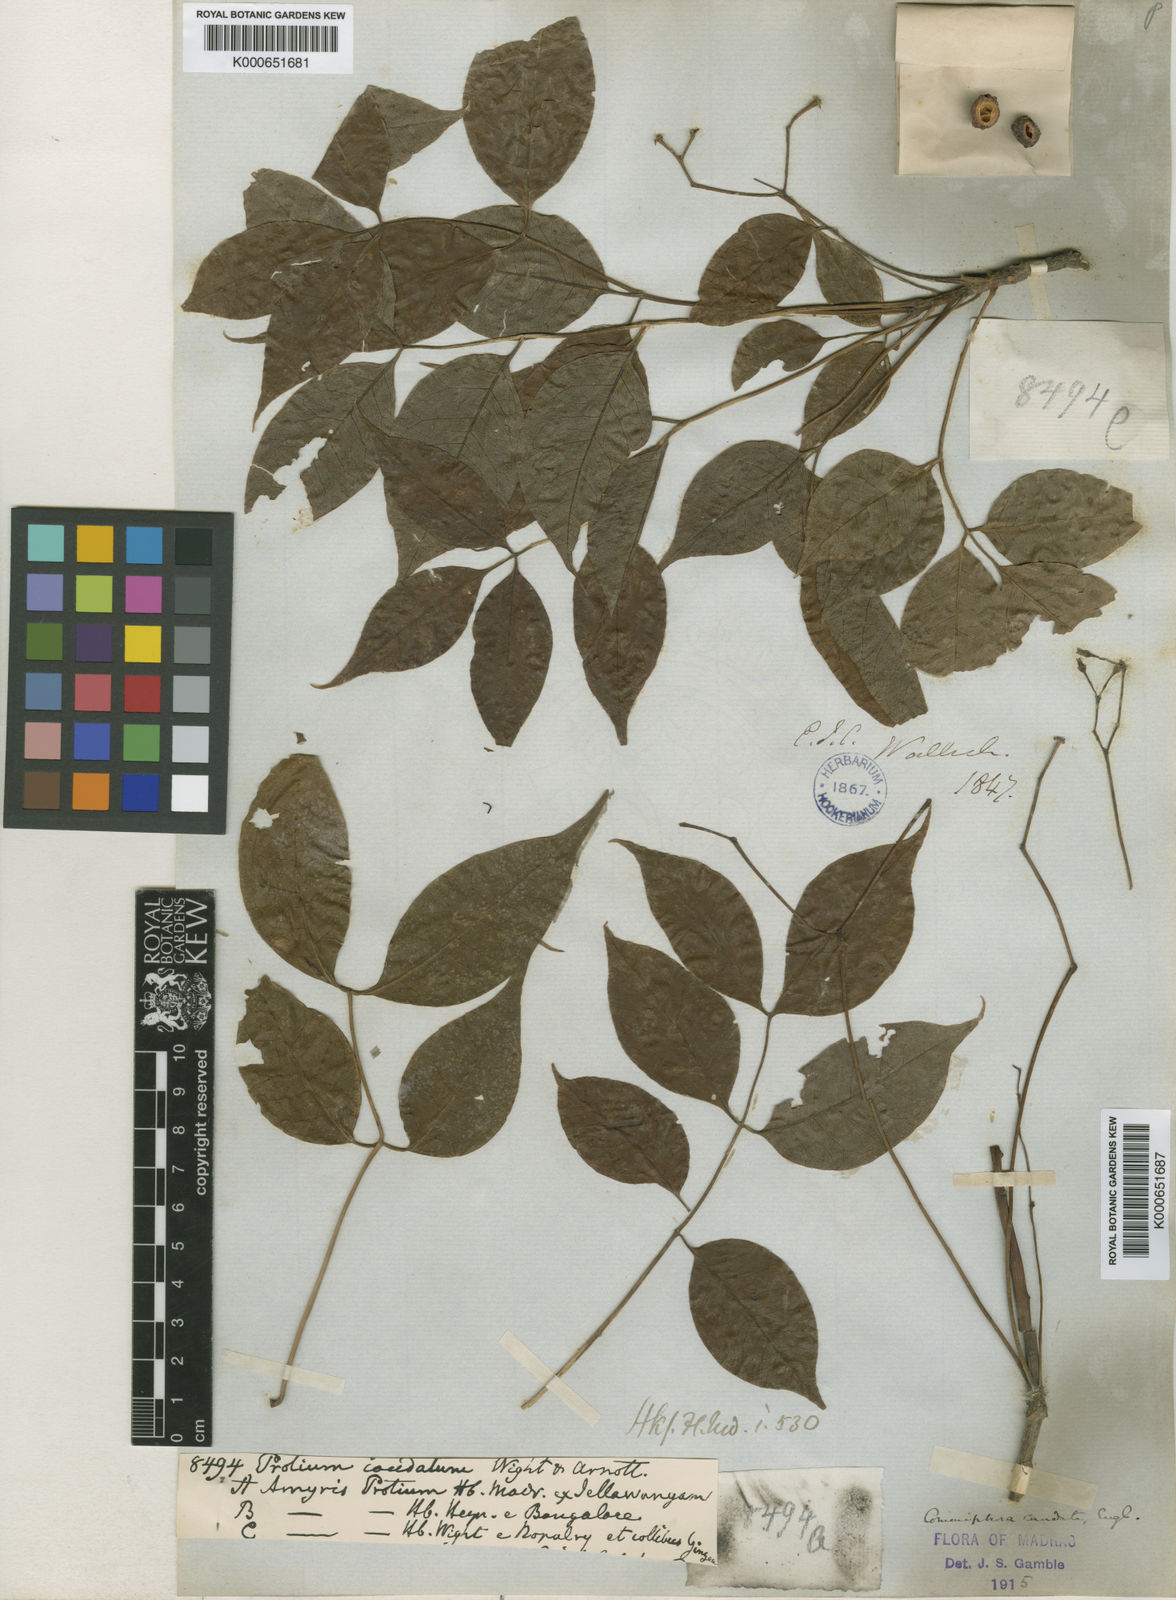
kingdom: Plantae
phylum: Tracheophyta
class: Magnoliopsida
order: Sapindales
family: Burseraceae
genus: Commiphora
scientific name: Commiphora caudata
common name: Hill-mango
